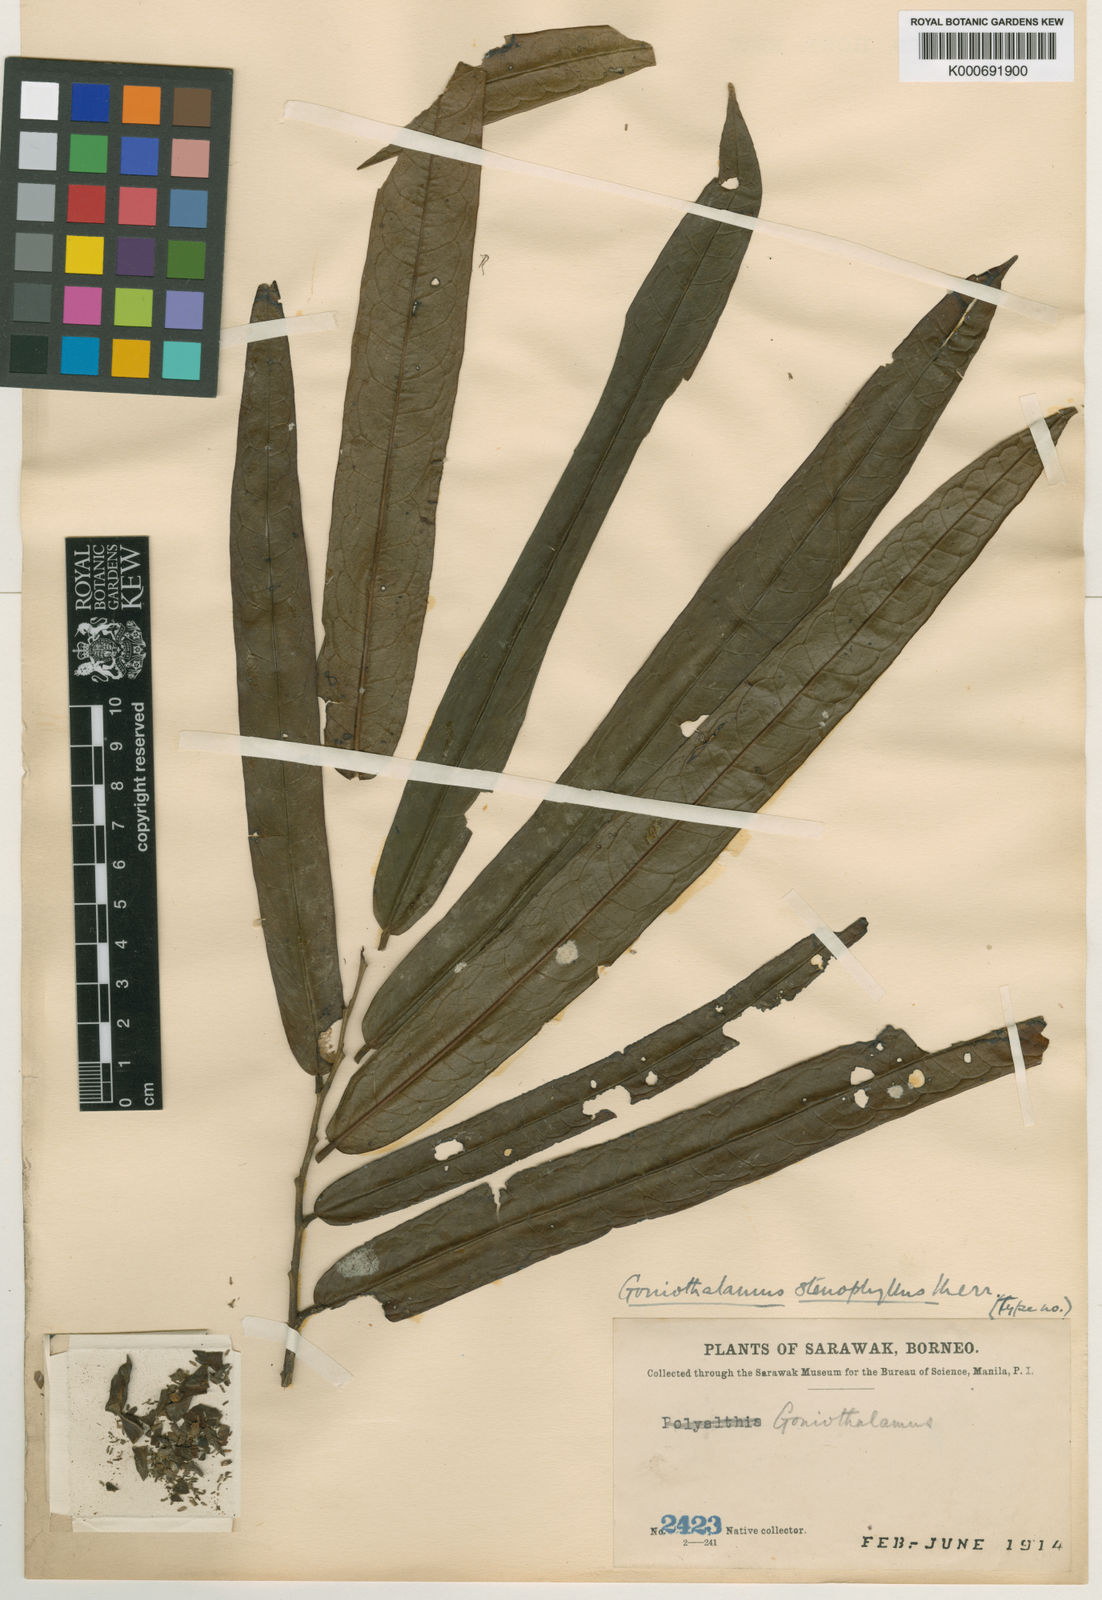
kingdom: Plantae
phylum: Tracheophyta
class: Magnoliopsida
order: Magnoliales
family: Annonaceae
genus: Goniothalamus
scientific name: Goniothalamus stenophyllus
